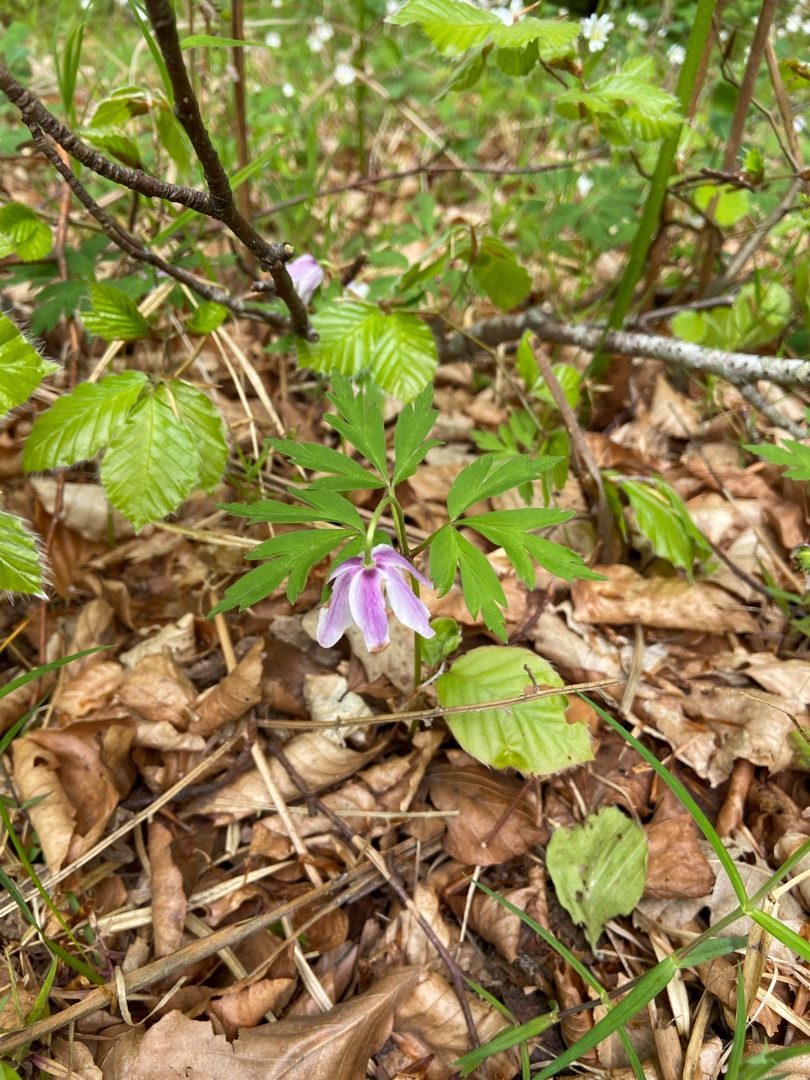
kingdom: Plantae
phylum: Tracheophyta
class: Magnoliopsida
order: Ranunculales
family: Ranunculaceae
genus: Anemone
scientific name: Anemone nemorosa
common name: Hvid anemone
